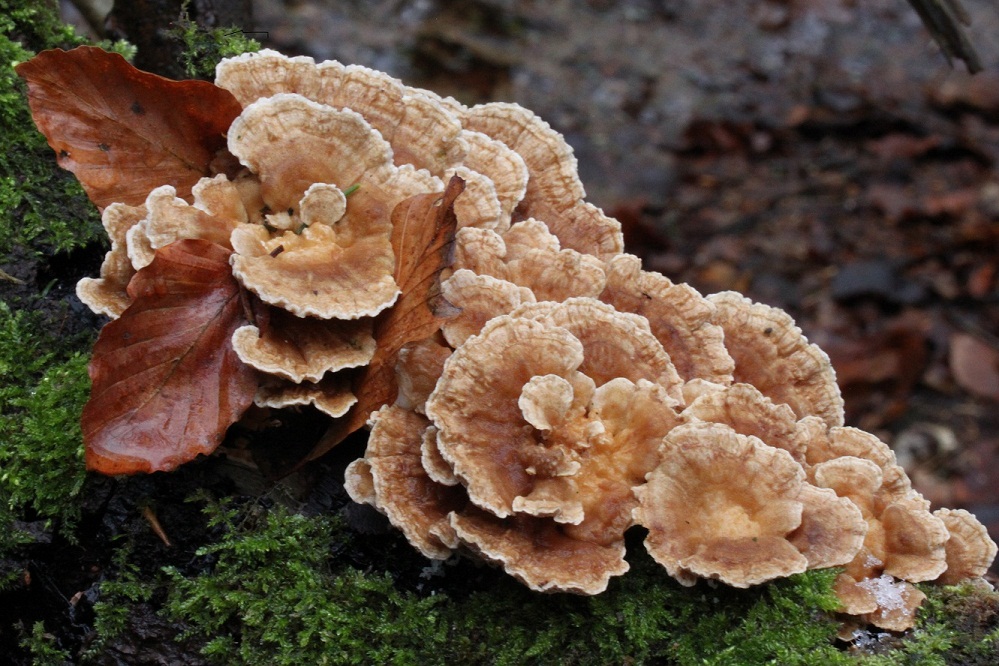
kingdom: Fungi
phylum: Basidiomycota
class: Agaricomycetes
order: Polyporales
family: Polyporaceae
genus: Trametes
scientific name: Trametes ochracea
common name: bæltet læderporesvamp
